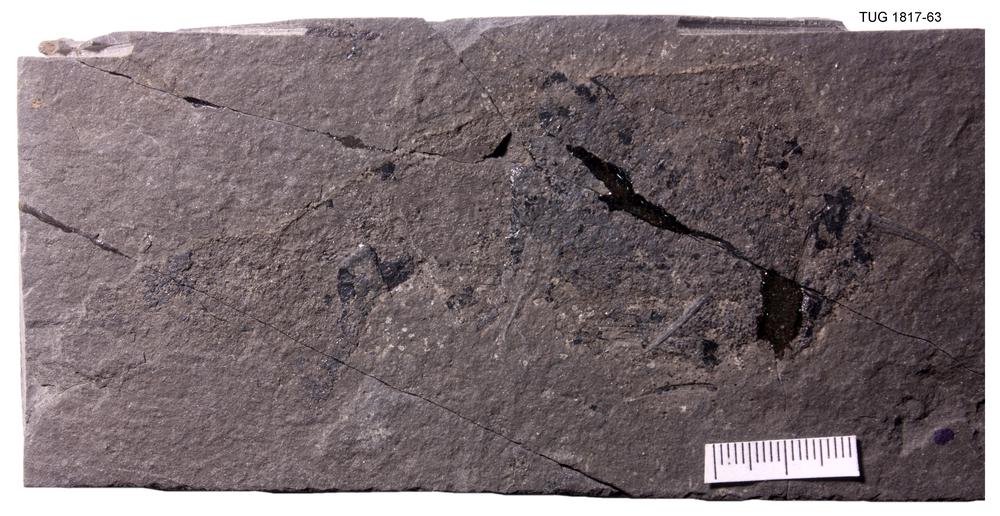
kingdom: Animalia
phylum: Chordata
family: Acanthodidae
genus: Cheiracanthus
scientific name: Cheiracanthus murchisoni
